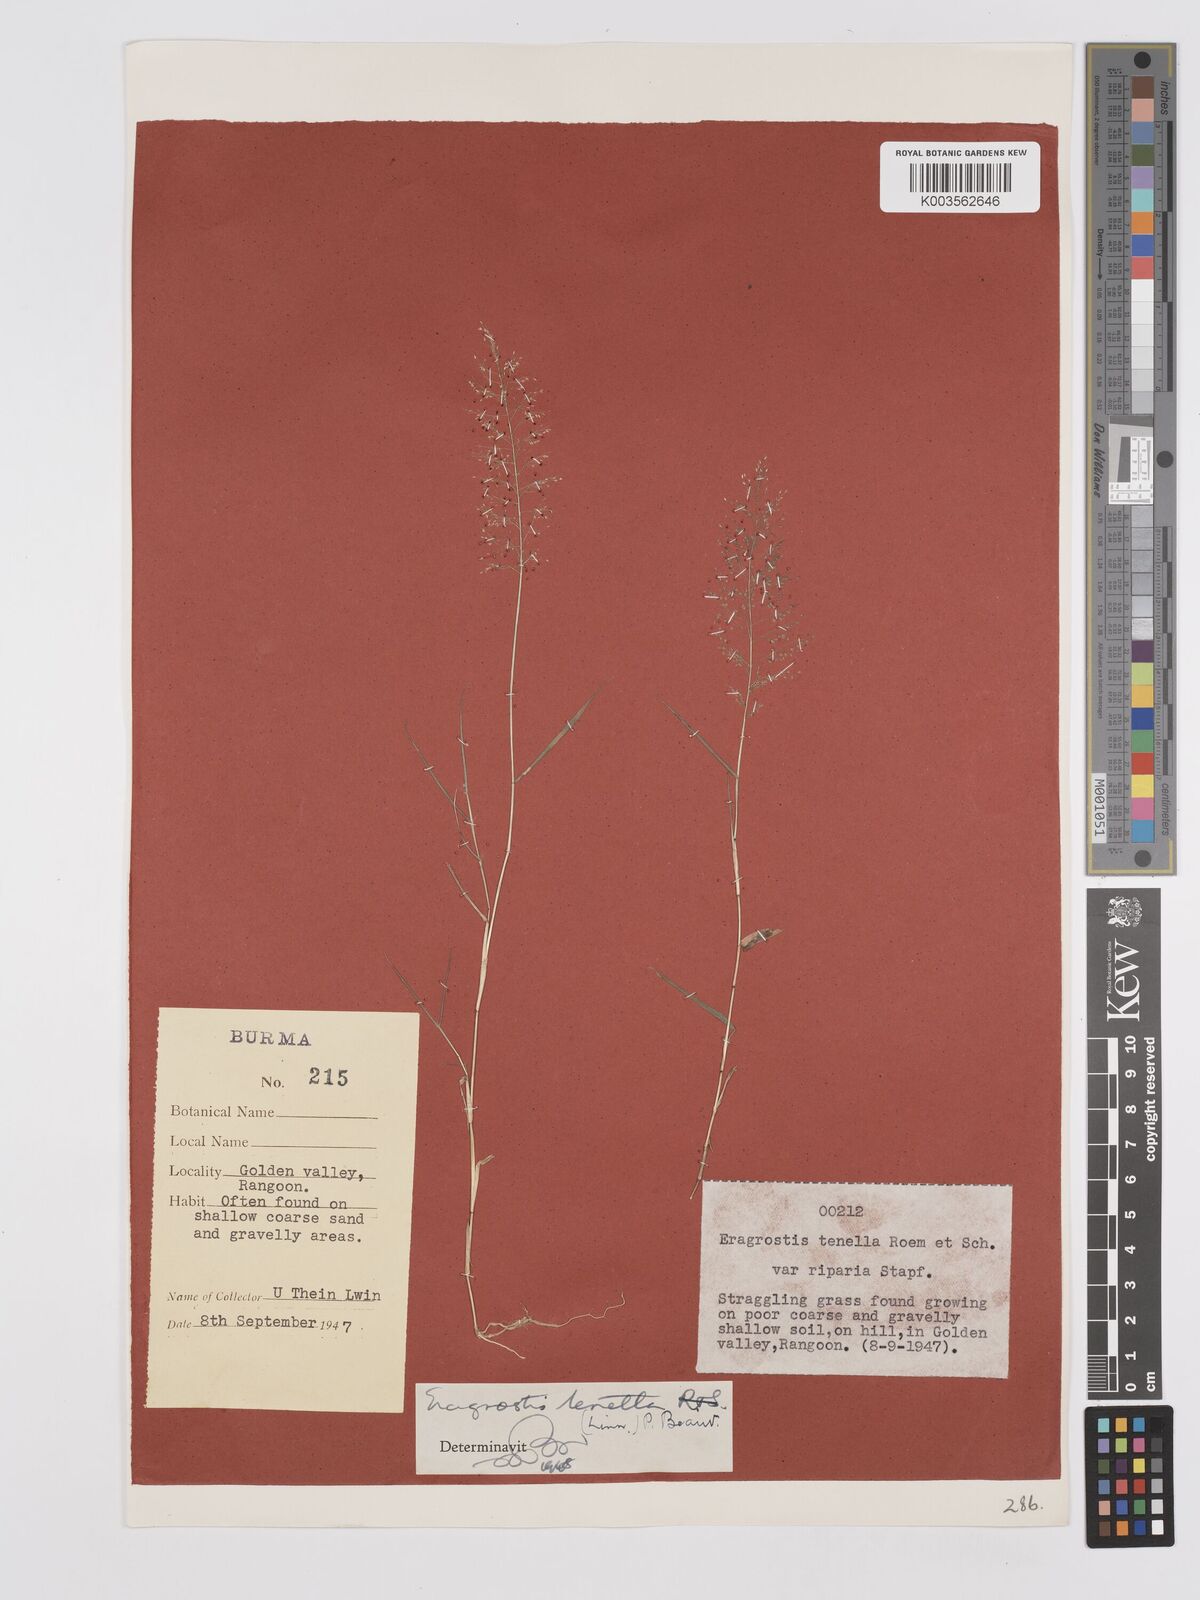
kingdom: Plantae
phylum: Tracheophyta
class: Liliopsida
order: Poales
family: Poaceae
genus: Eragrostis
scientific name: Eragrostis tenella
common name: Japanese lovegrass
